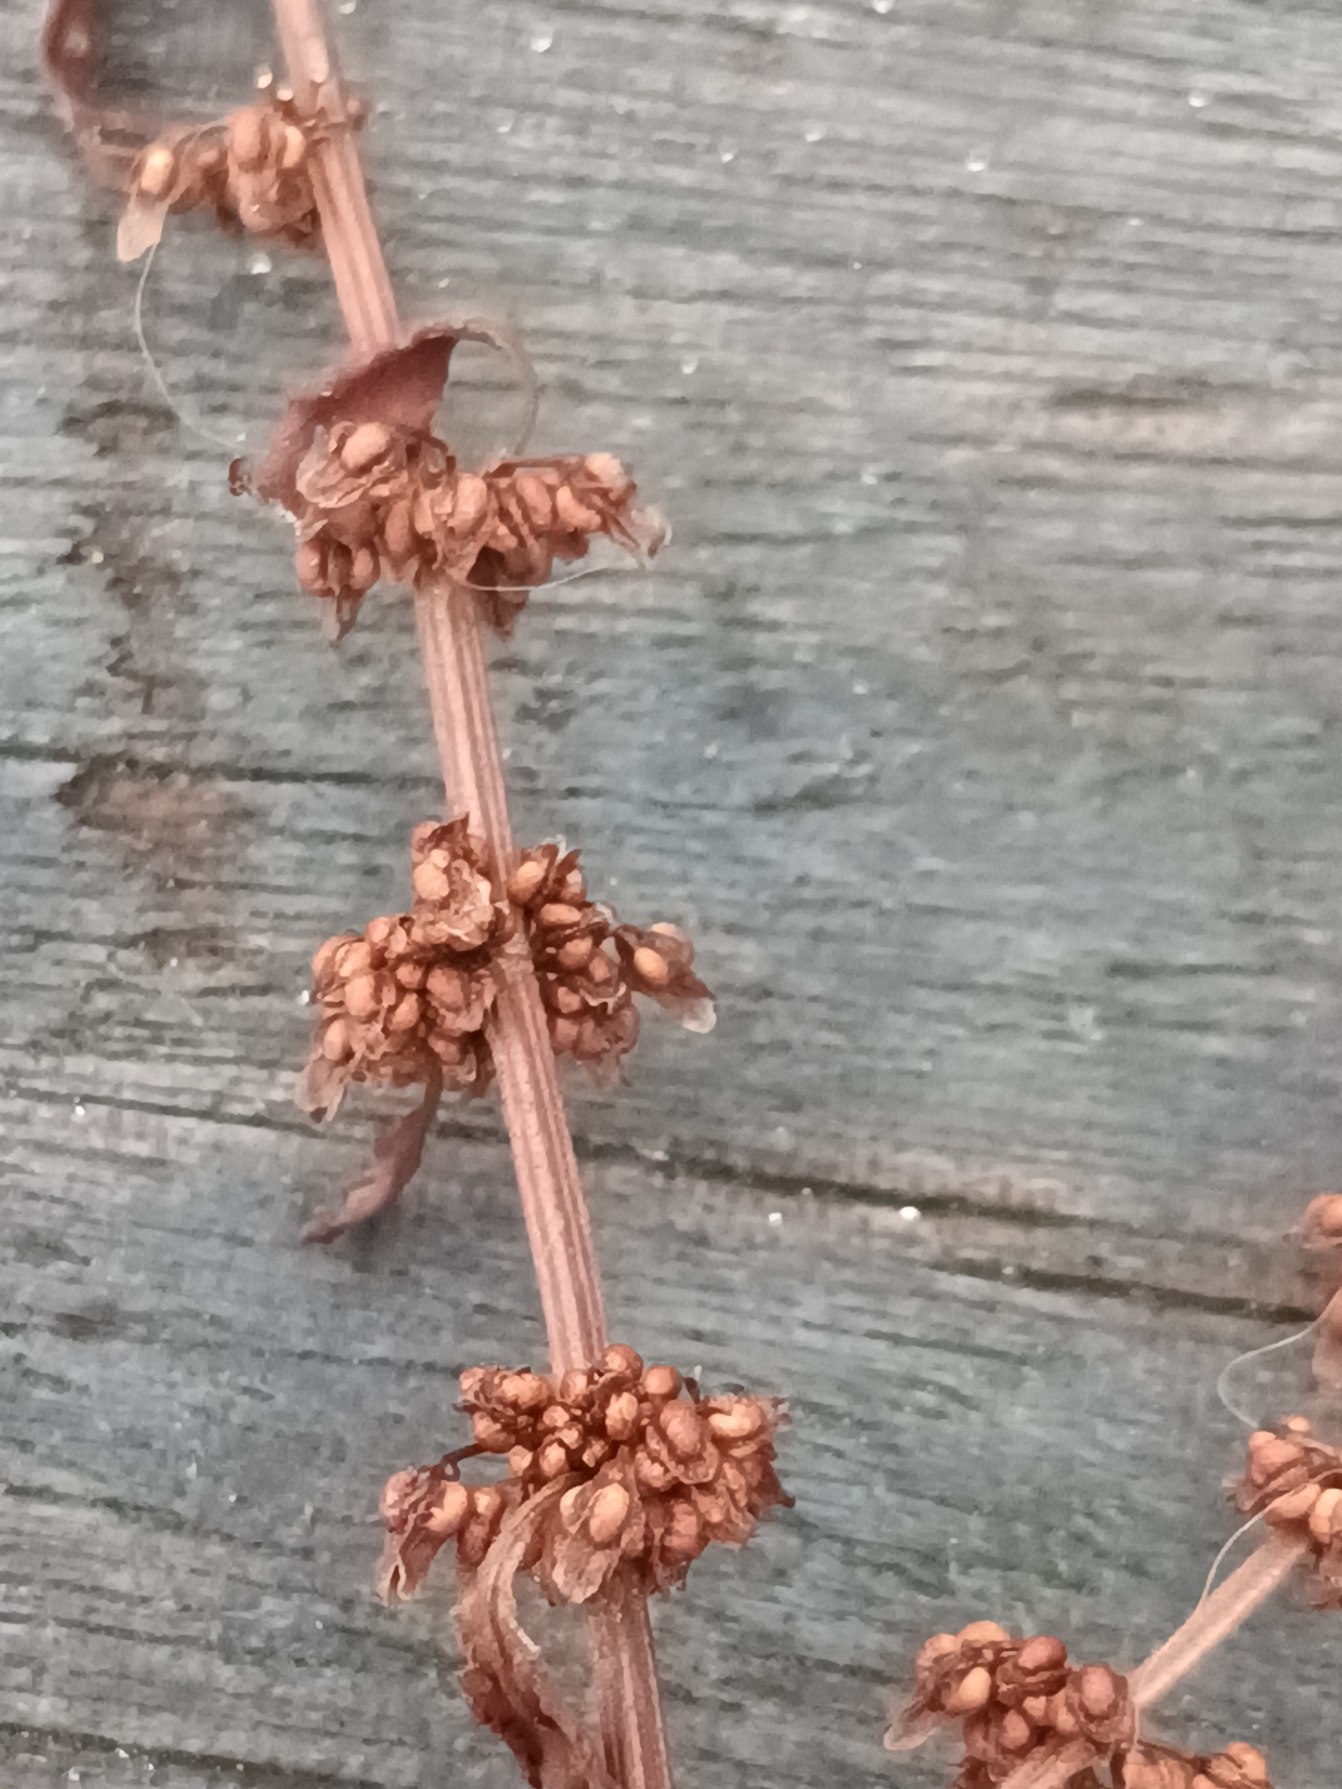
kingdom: Plantae
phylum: Tracheophyta
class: Magnoliopsida
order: Caryophyllales
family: Polygonaceae
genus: Rumex
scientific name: Rumex conglomeratus
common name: Nøgle-skræppe
